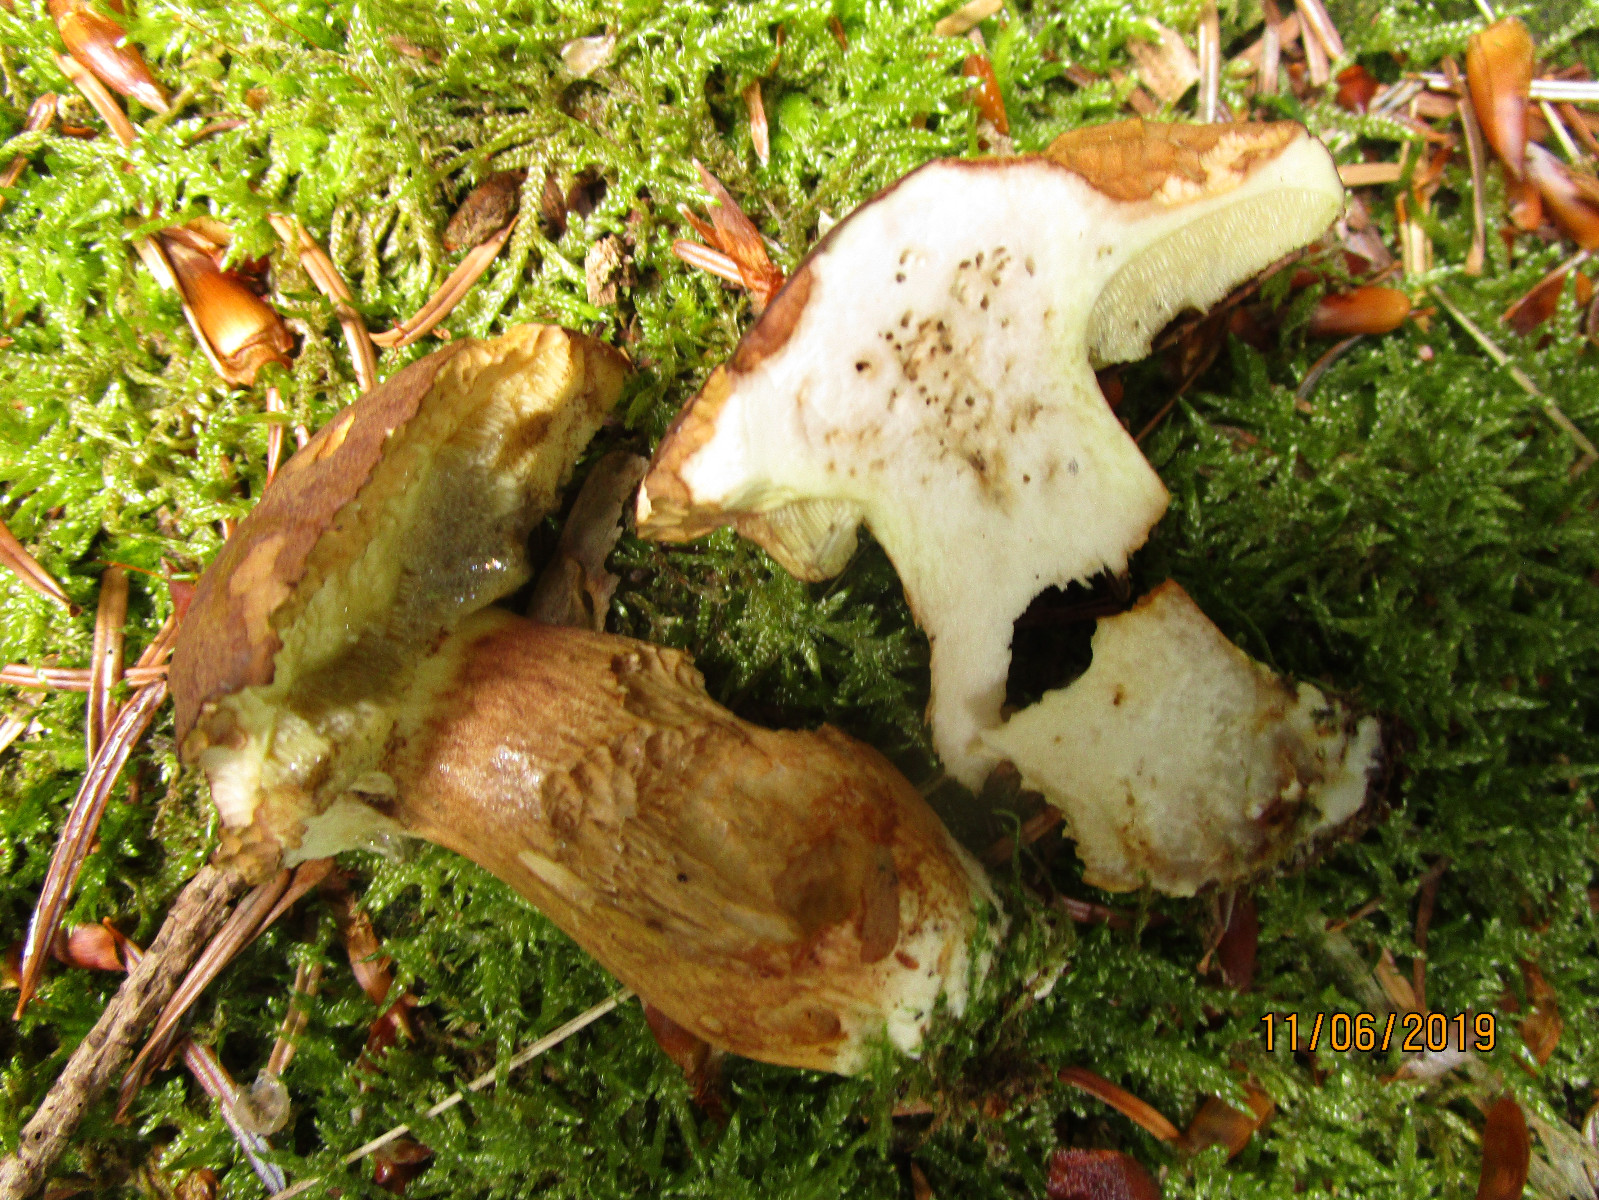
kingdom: Fungi
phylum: Basidiomycota
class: Agaricomycetes
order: Boletales
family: Boletaceae
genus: Imleria
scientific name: Imleria badia
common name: brunstokket rørhat
